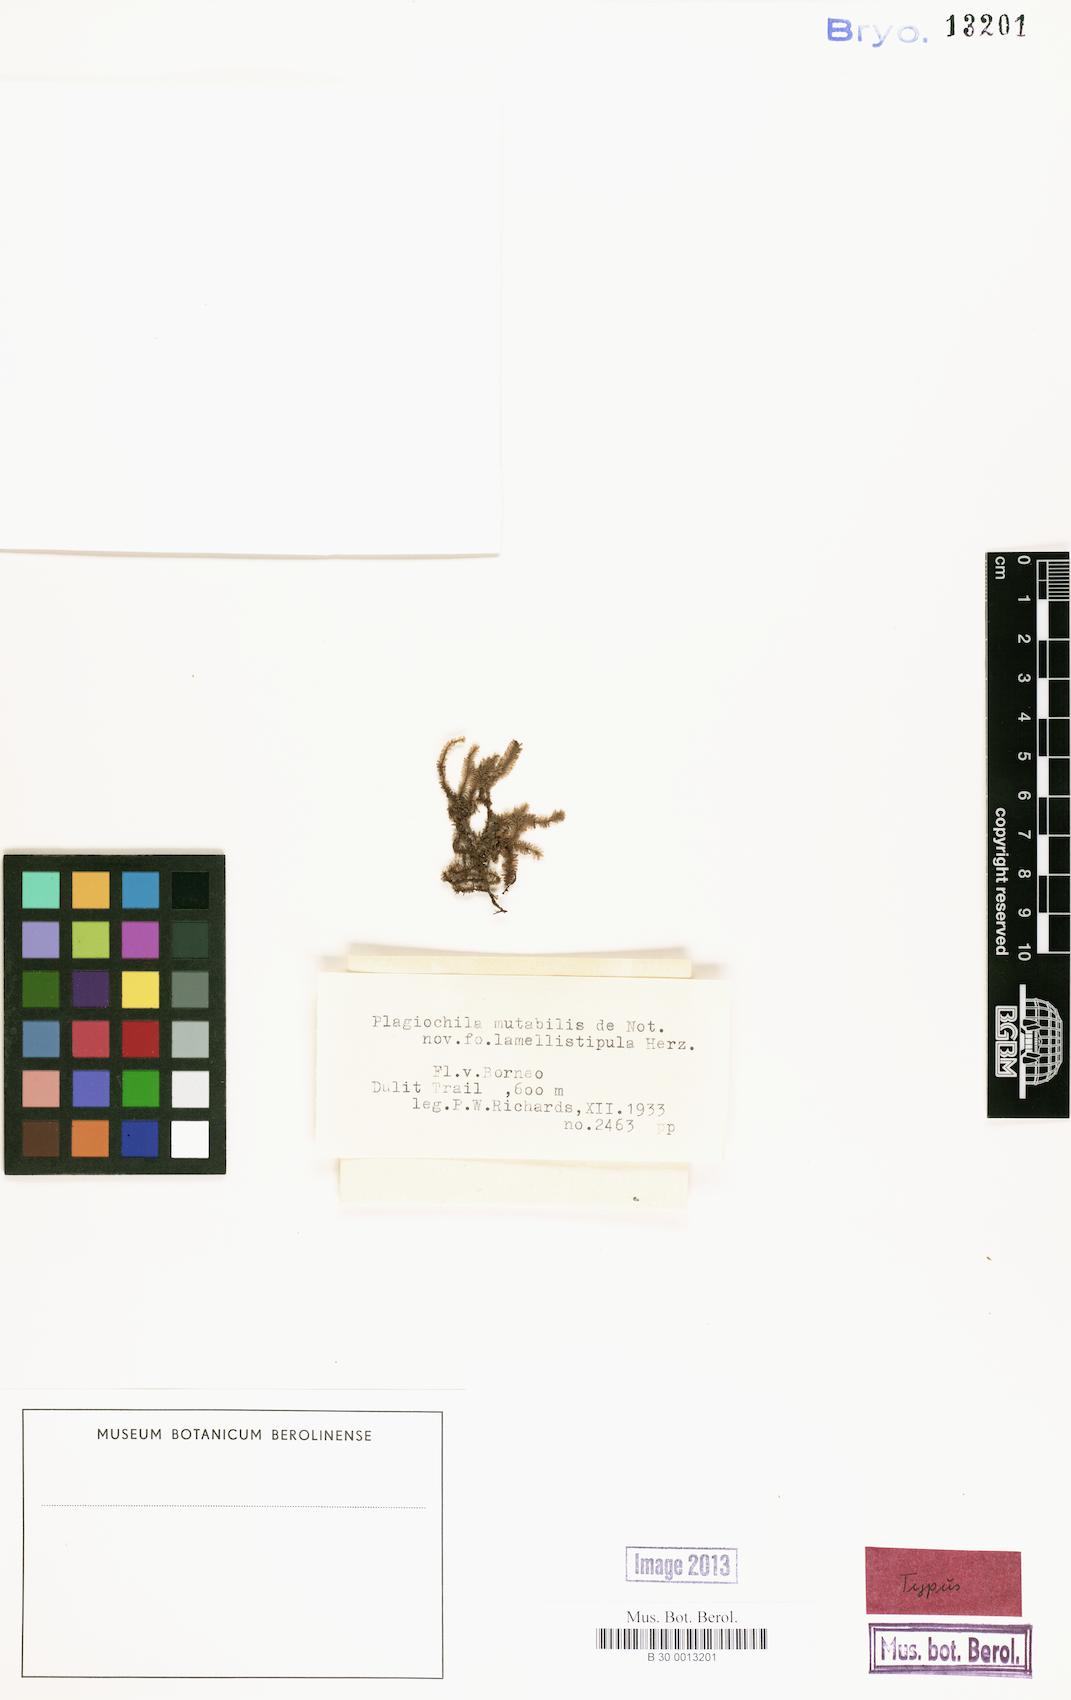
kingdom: Plantae
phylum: Marchantiophyta
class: Jungermanniopsida
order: Jungermanniales
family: Plagiochilaceae
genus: Plagiochila
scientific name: Plagiochila bantamensis
